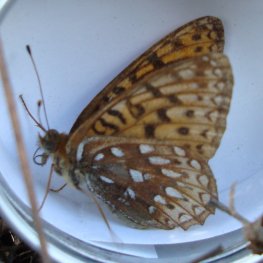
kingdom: Animalia
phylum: Arthropoda
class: Insecta
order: Lepidoptera
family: Nymphalidae
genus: Speyeria
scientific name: Speyeria atlantis
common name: Atlantis Fritillary
